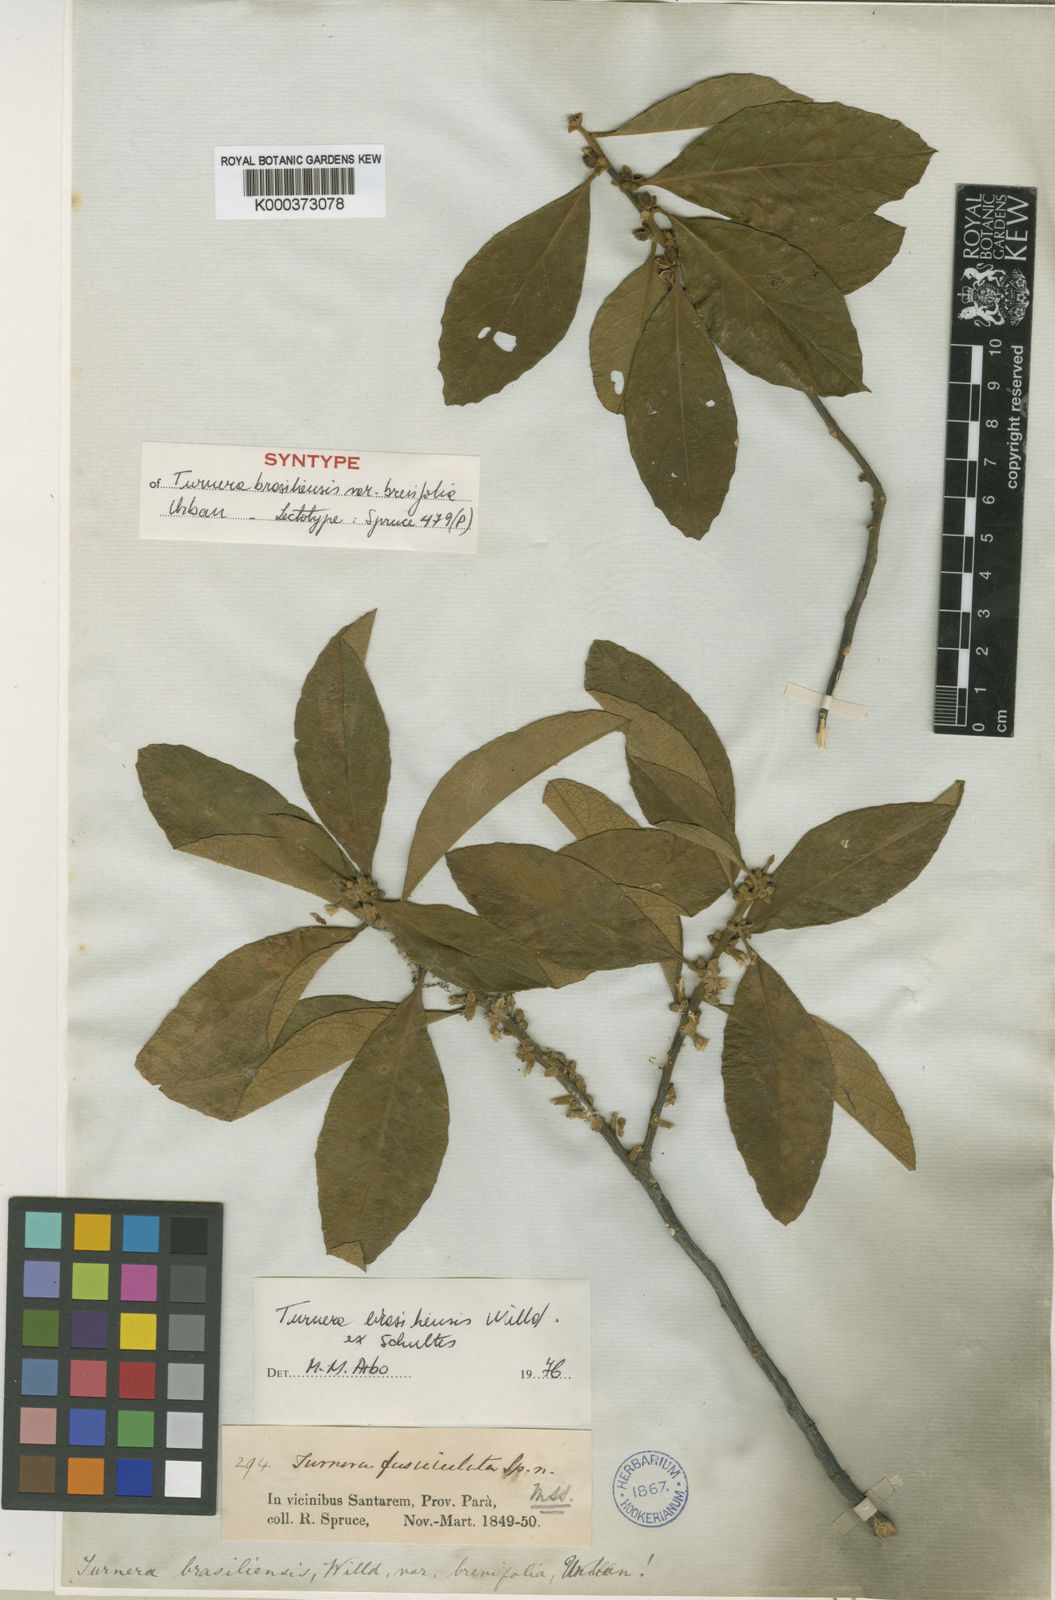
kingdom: Plantae
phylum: Tracheophyta
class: Magnoliopsida
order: Malpighiales
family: Turneraceae
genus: Turnera
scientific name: Turnera brasiliensis
